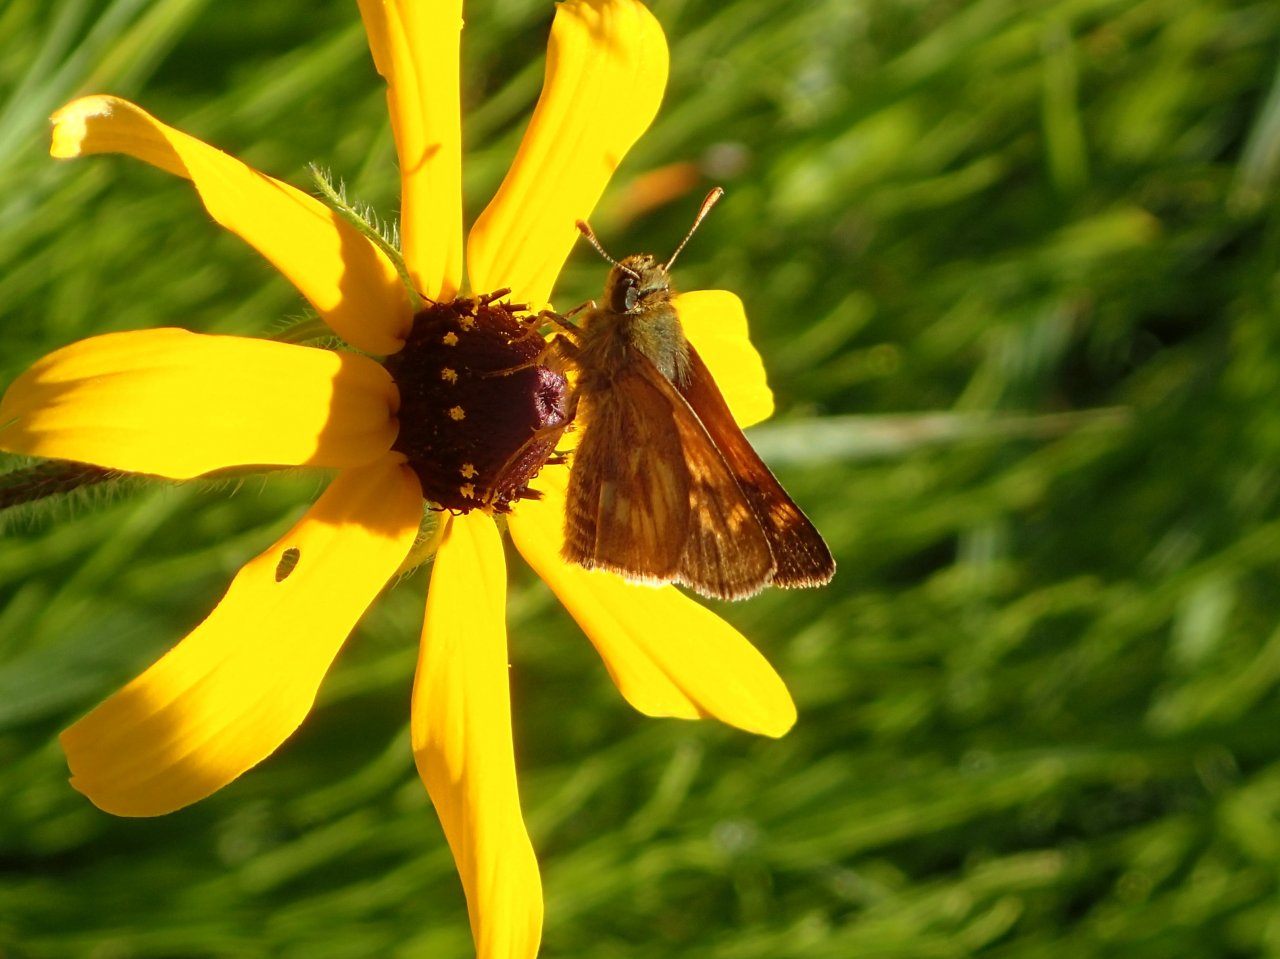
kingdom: Animalia
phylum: Arthropoda
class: Insecta
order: Lepidoptera
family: Hesperiidae
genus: Polites
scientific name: Polites
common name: Long Dash Skipper
